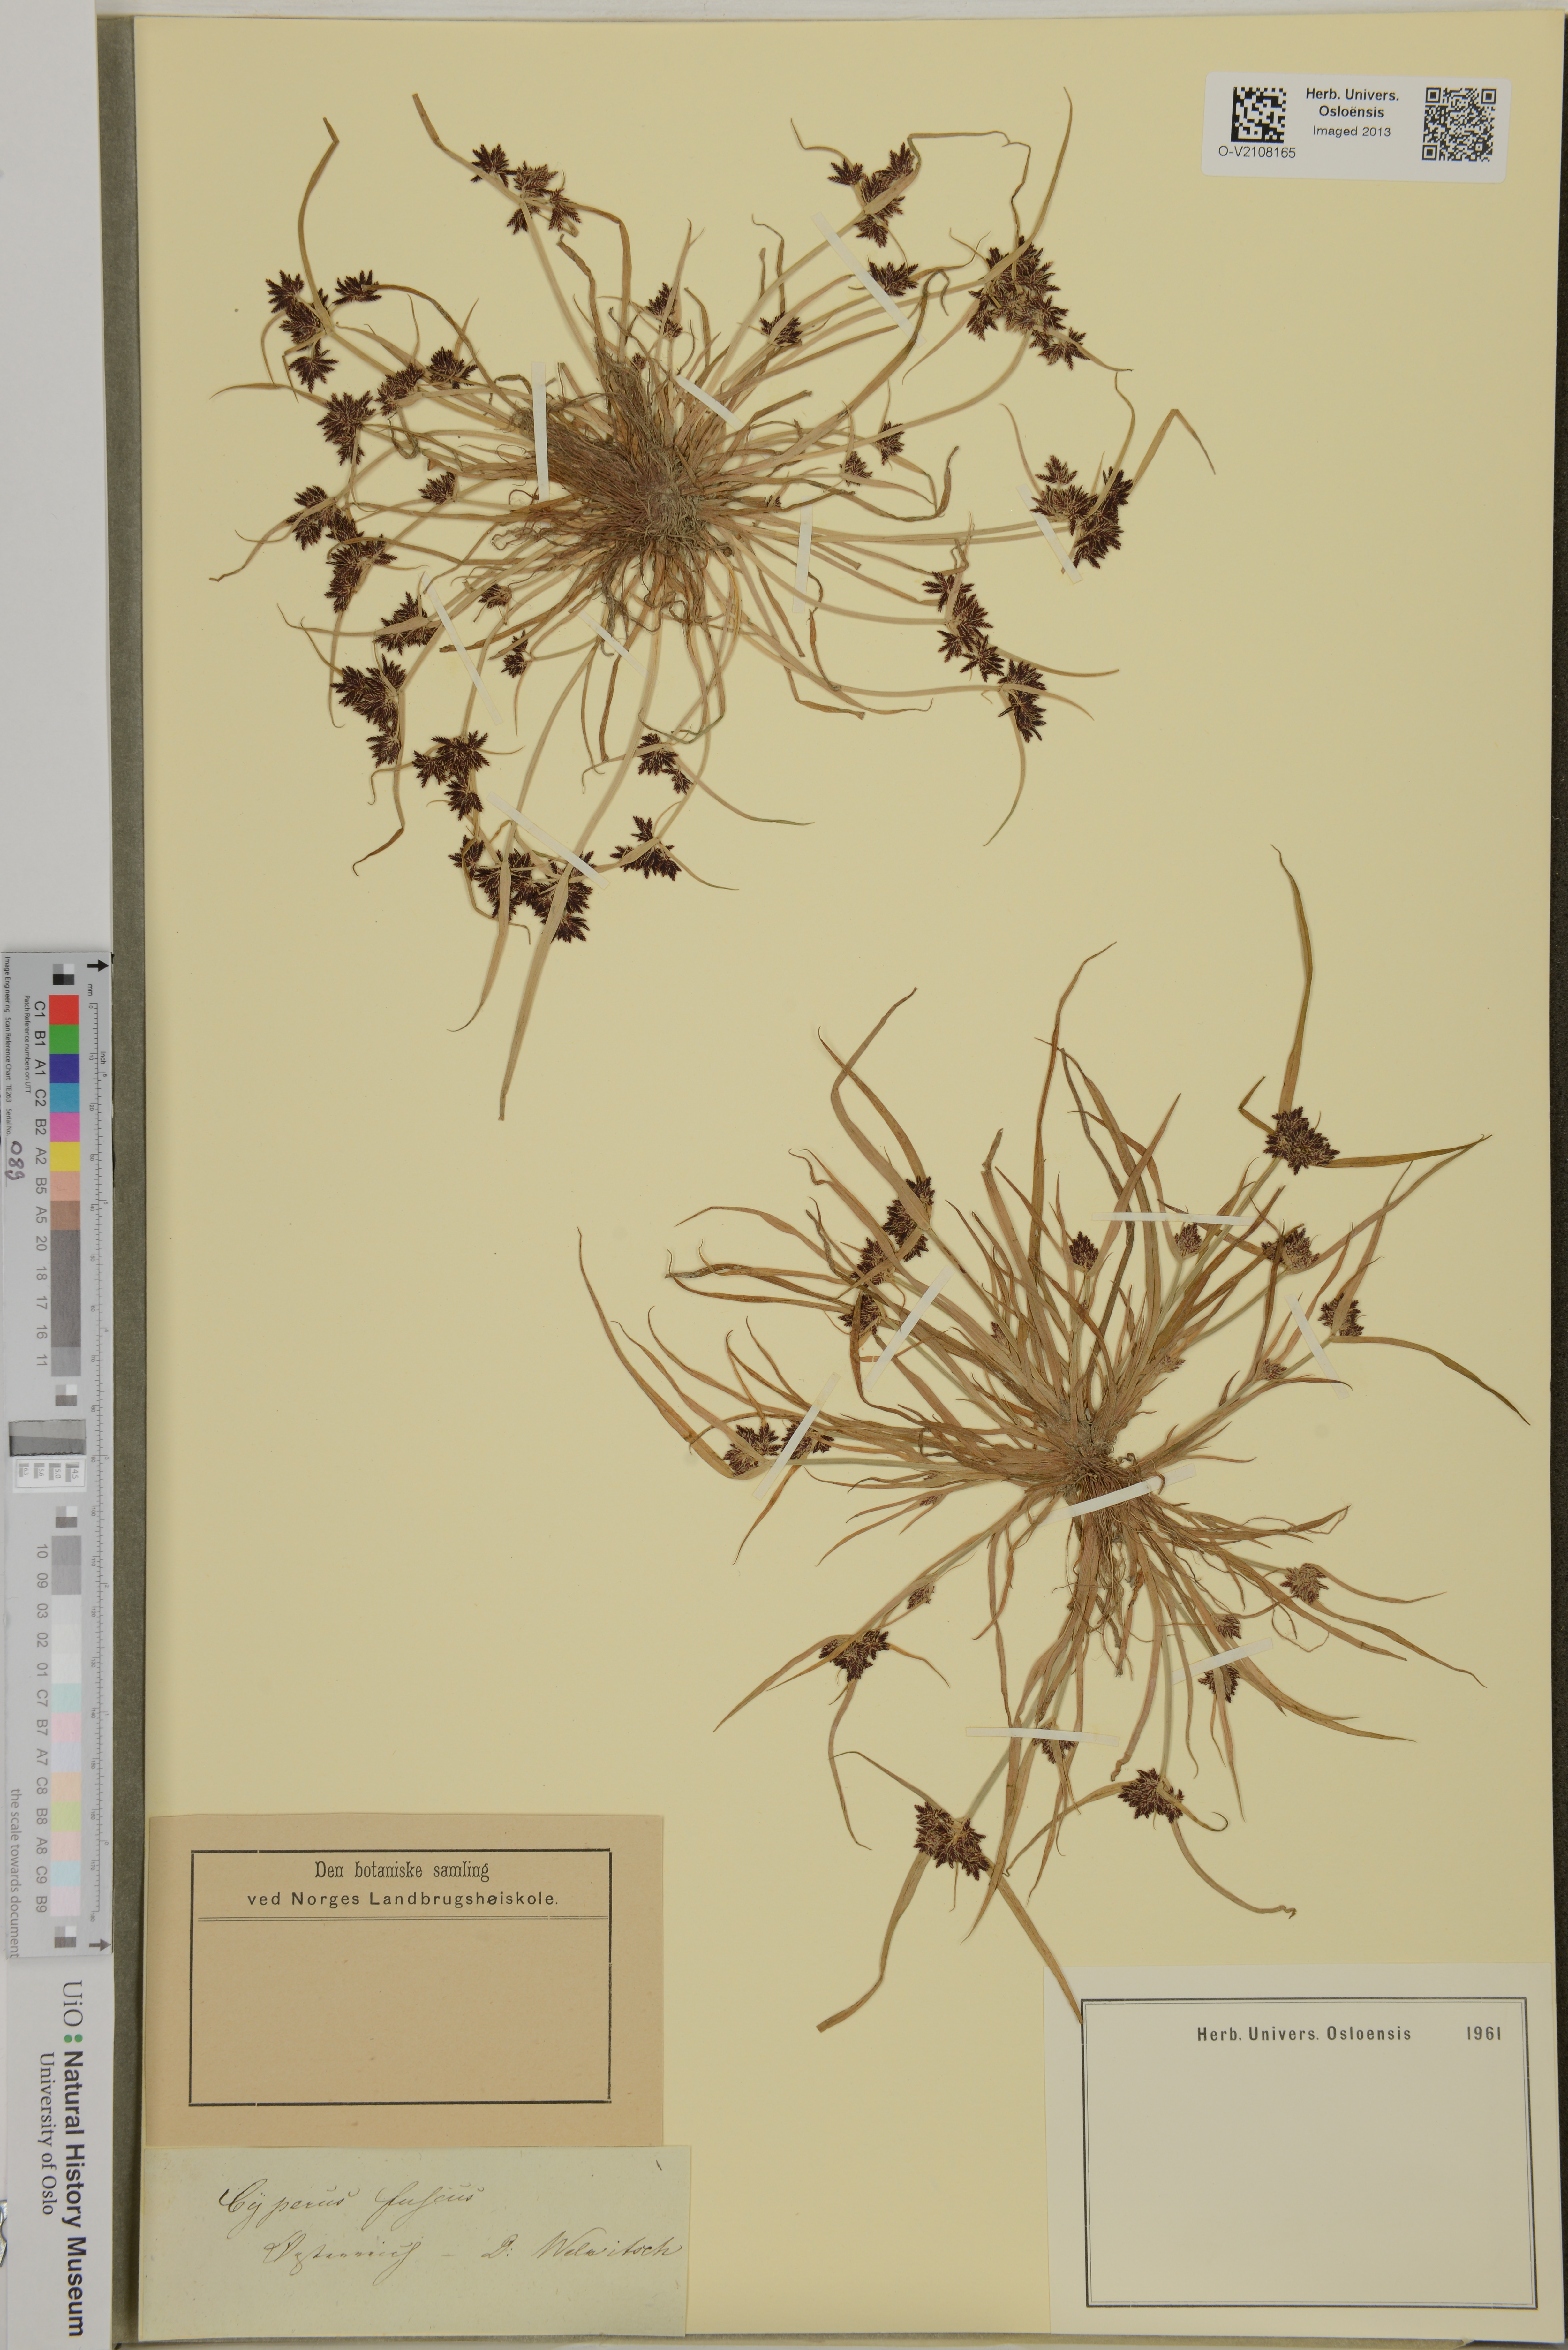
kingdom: Plantae
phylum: Tracheophyta
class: Liliopsida
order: Poales
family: Cyperaceae
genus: Cyperus
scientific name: Cyperus fuscus
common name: Brown galingale
